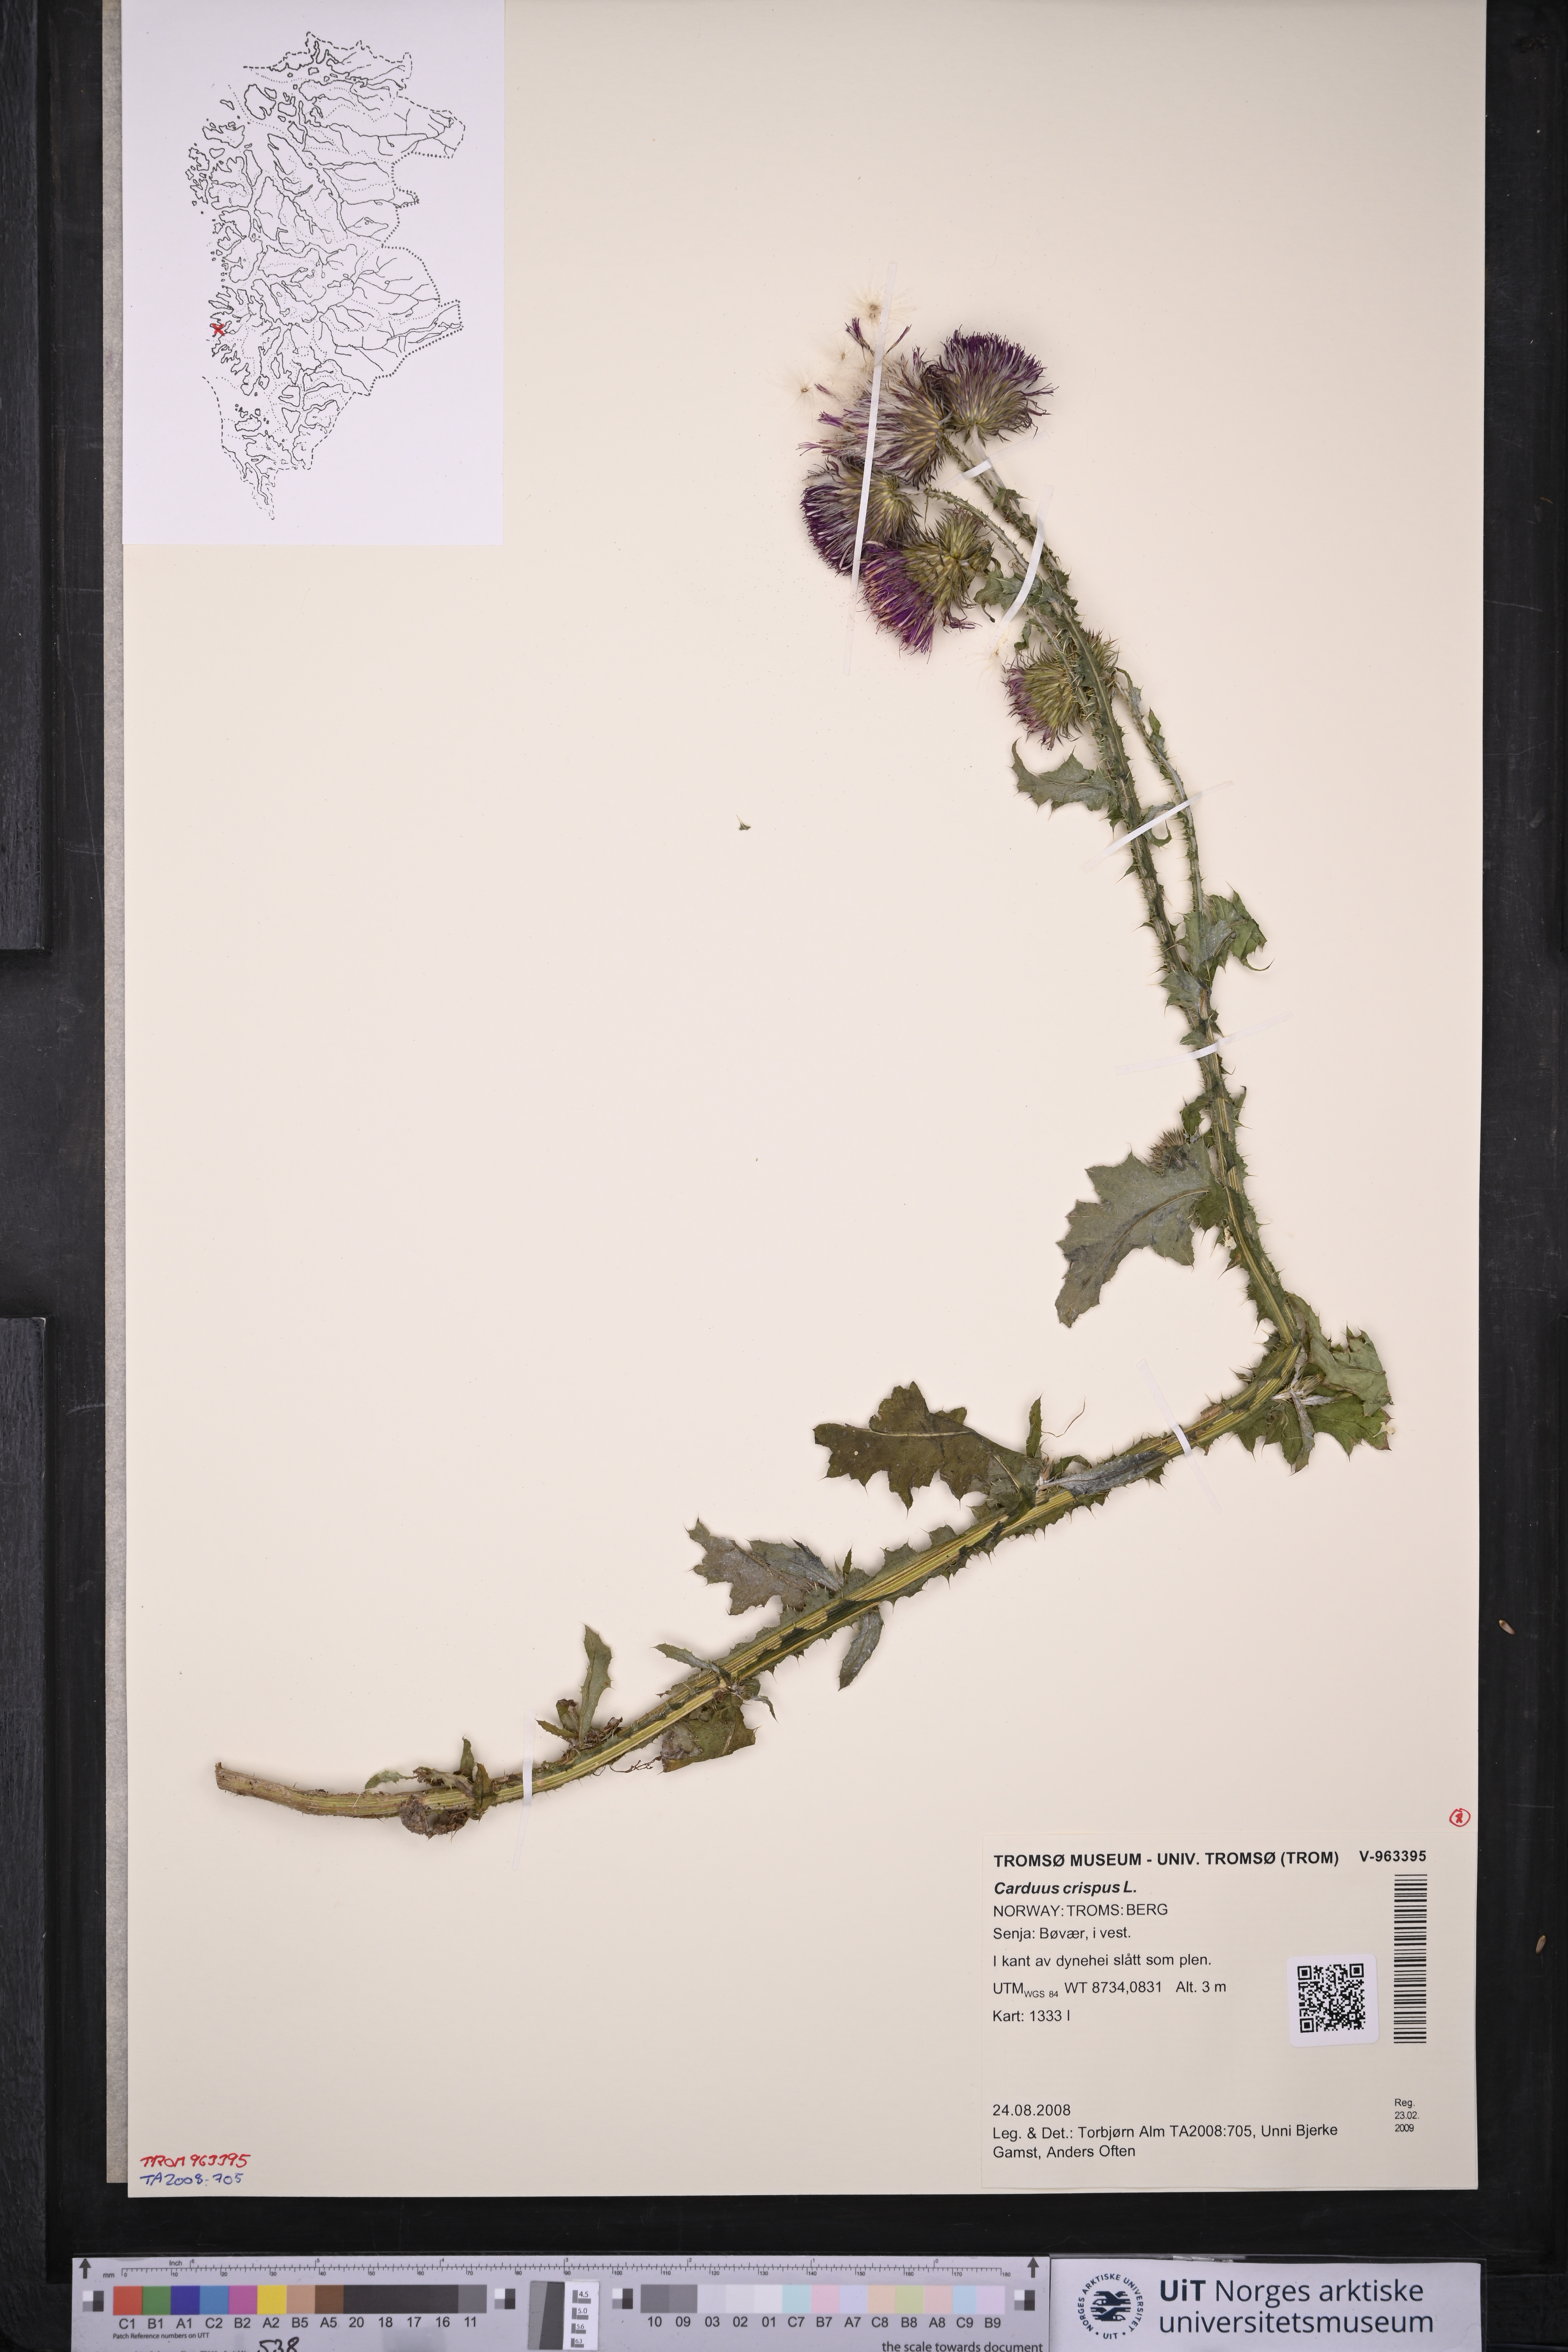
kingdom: Plantae
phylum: Tracheophyta
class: Magnoliopsida
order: Asterales
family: Asteraceae
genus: Carduus
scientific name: Carduus crispus
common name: Welted thistle
